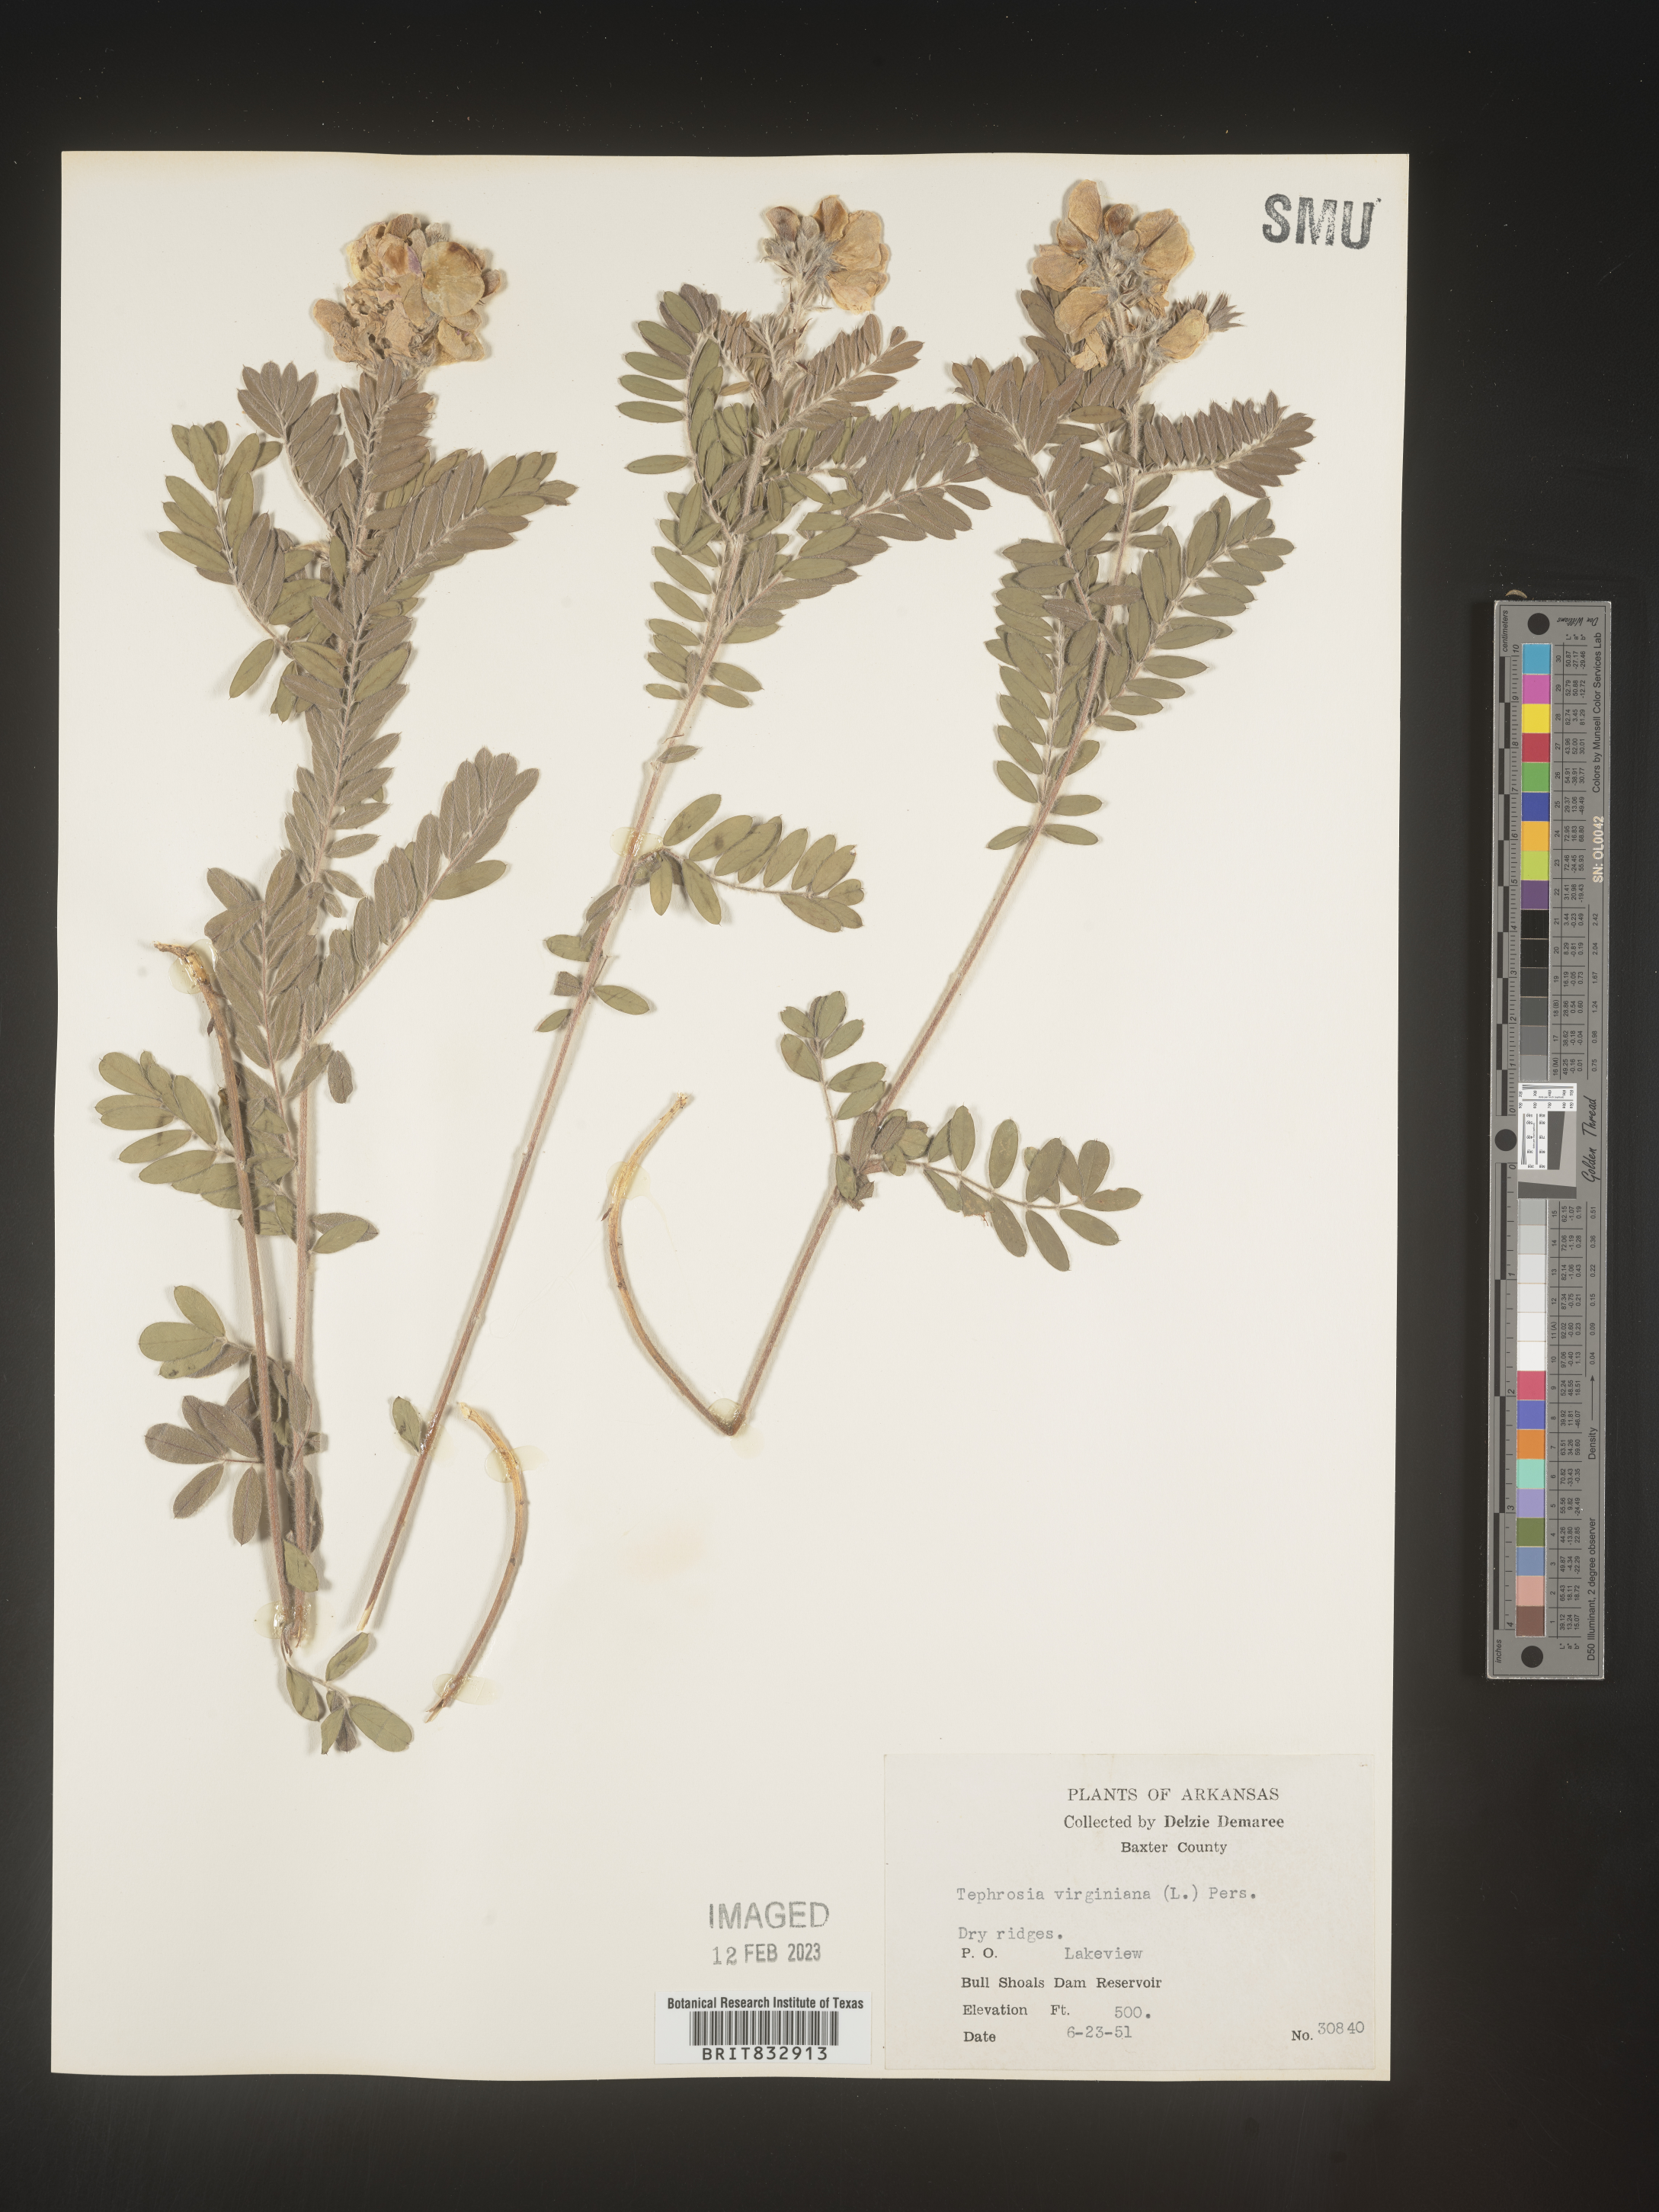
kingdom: Plantae
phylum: Tracheophyta
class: Magnoliopsida
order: Fabales
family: Fabaceae
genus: Tephrosia
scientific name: Tephrosia virginiana
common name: Rabbit-pea
